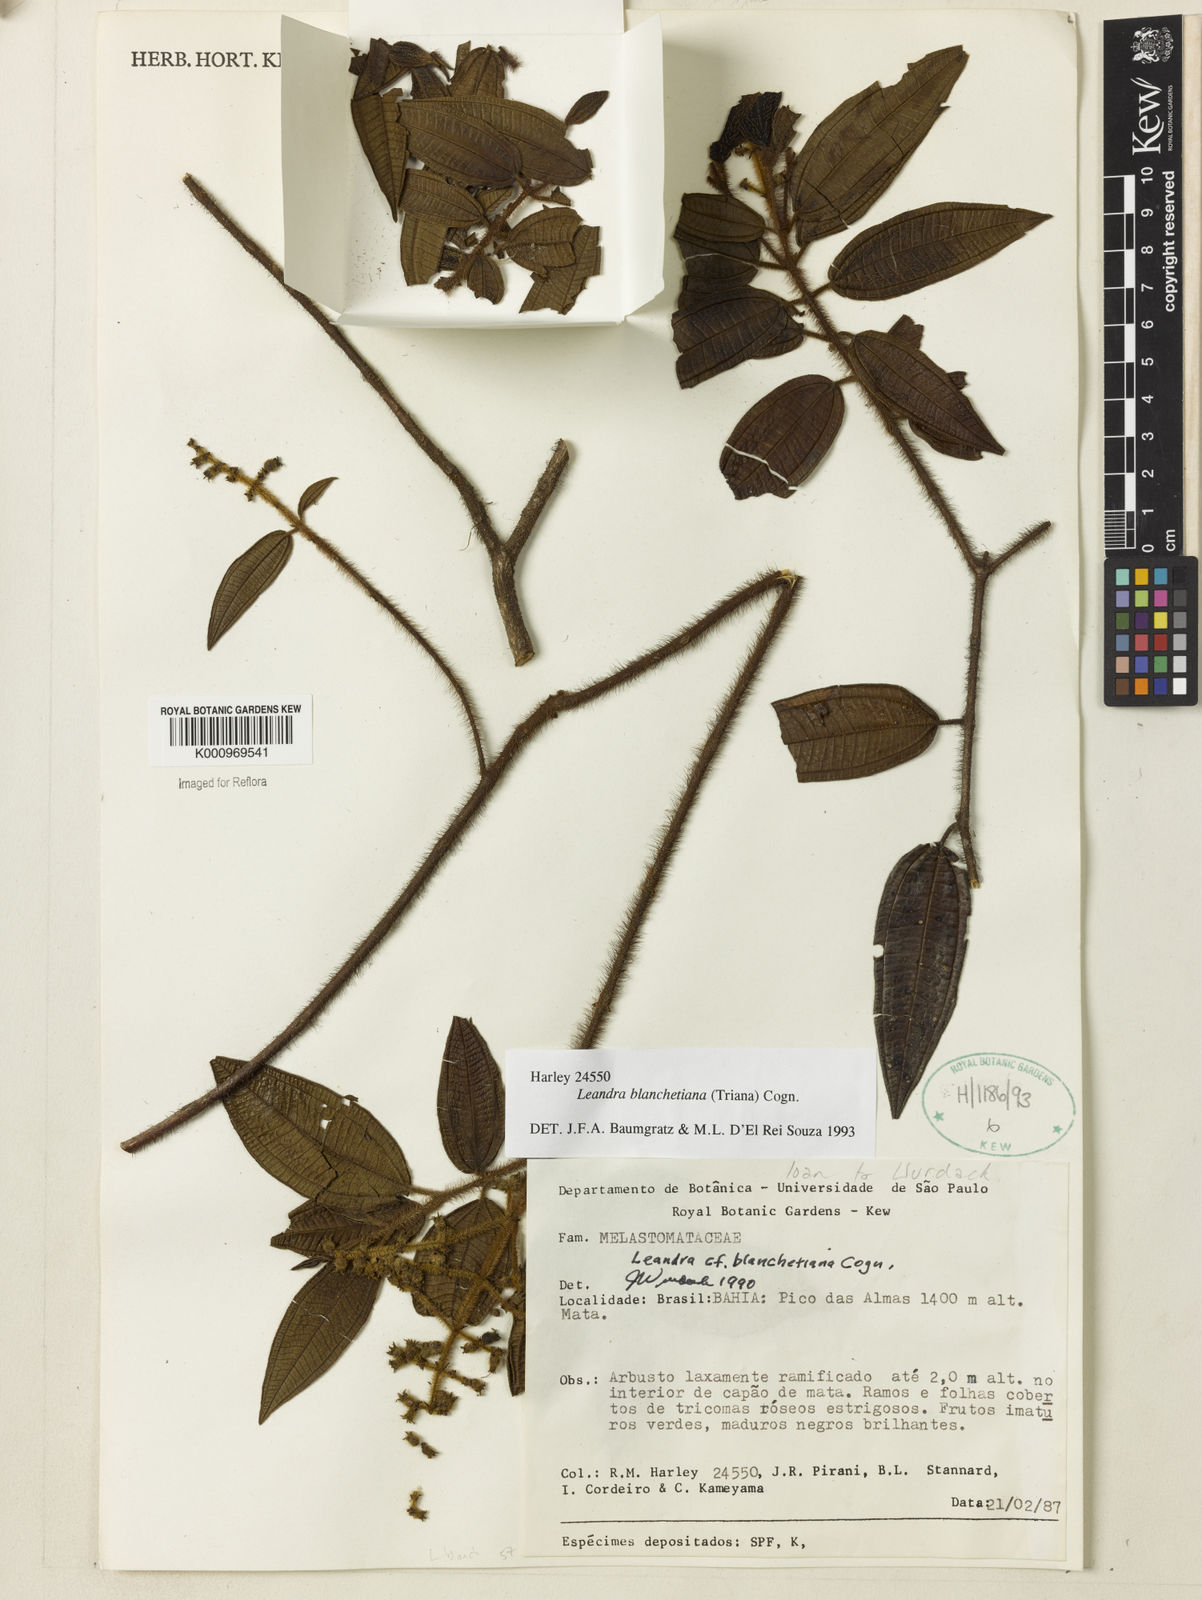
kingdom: Plantae
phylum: Tracheophyta
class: Magnoliopsida
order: Myrtales
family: Melastomataceae
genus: Miconia
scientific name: Miconia leablanchetiana
